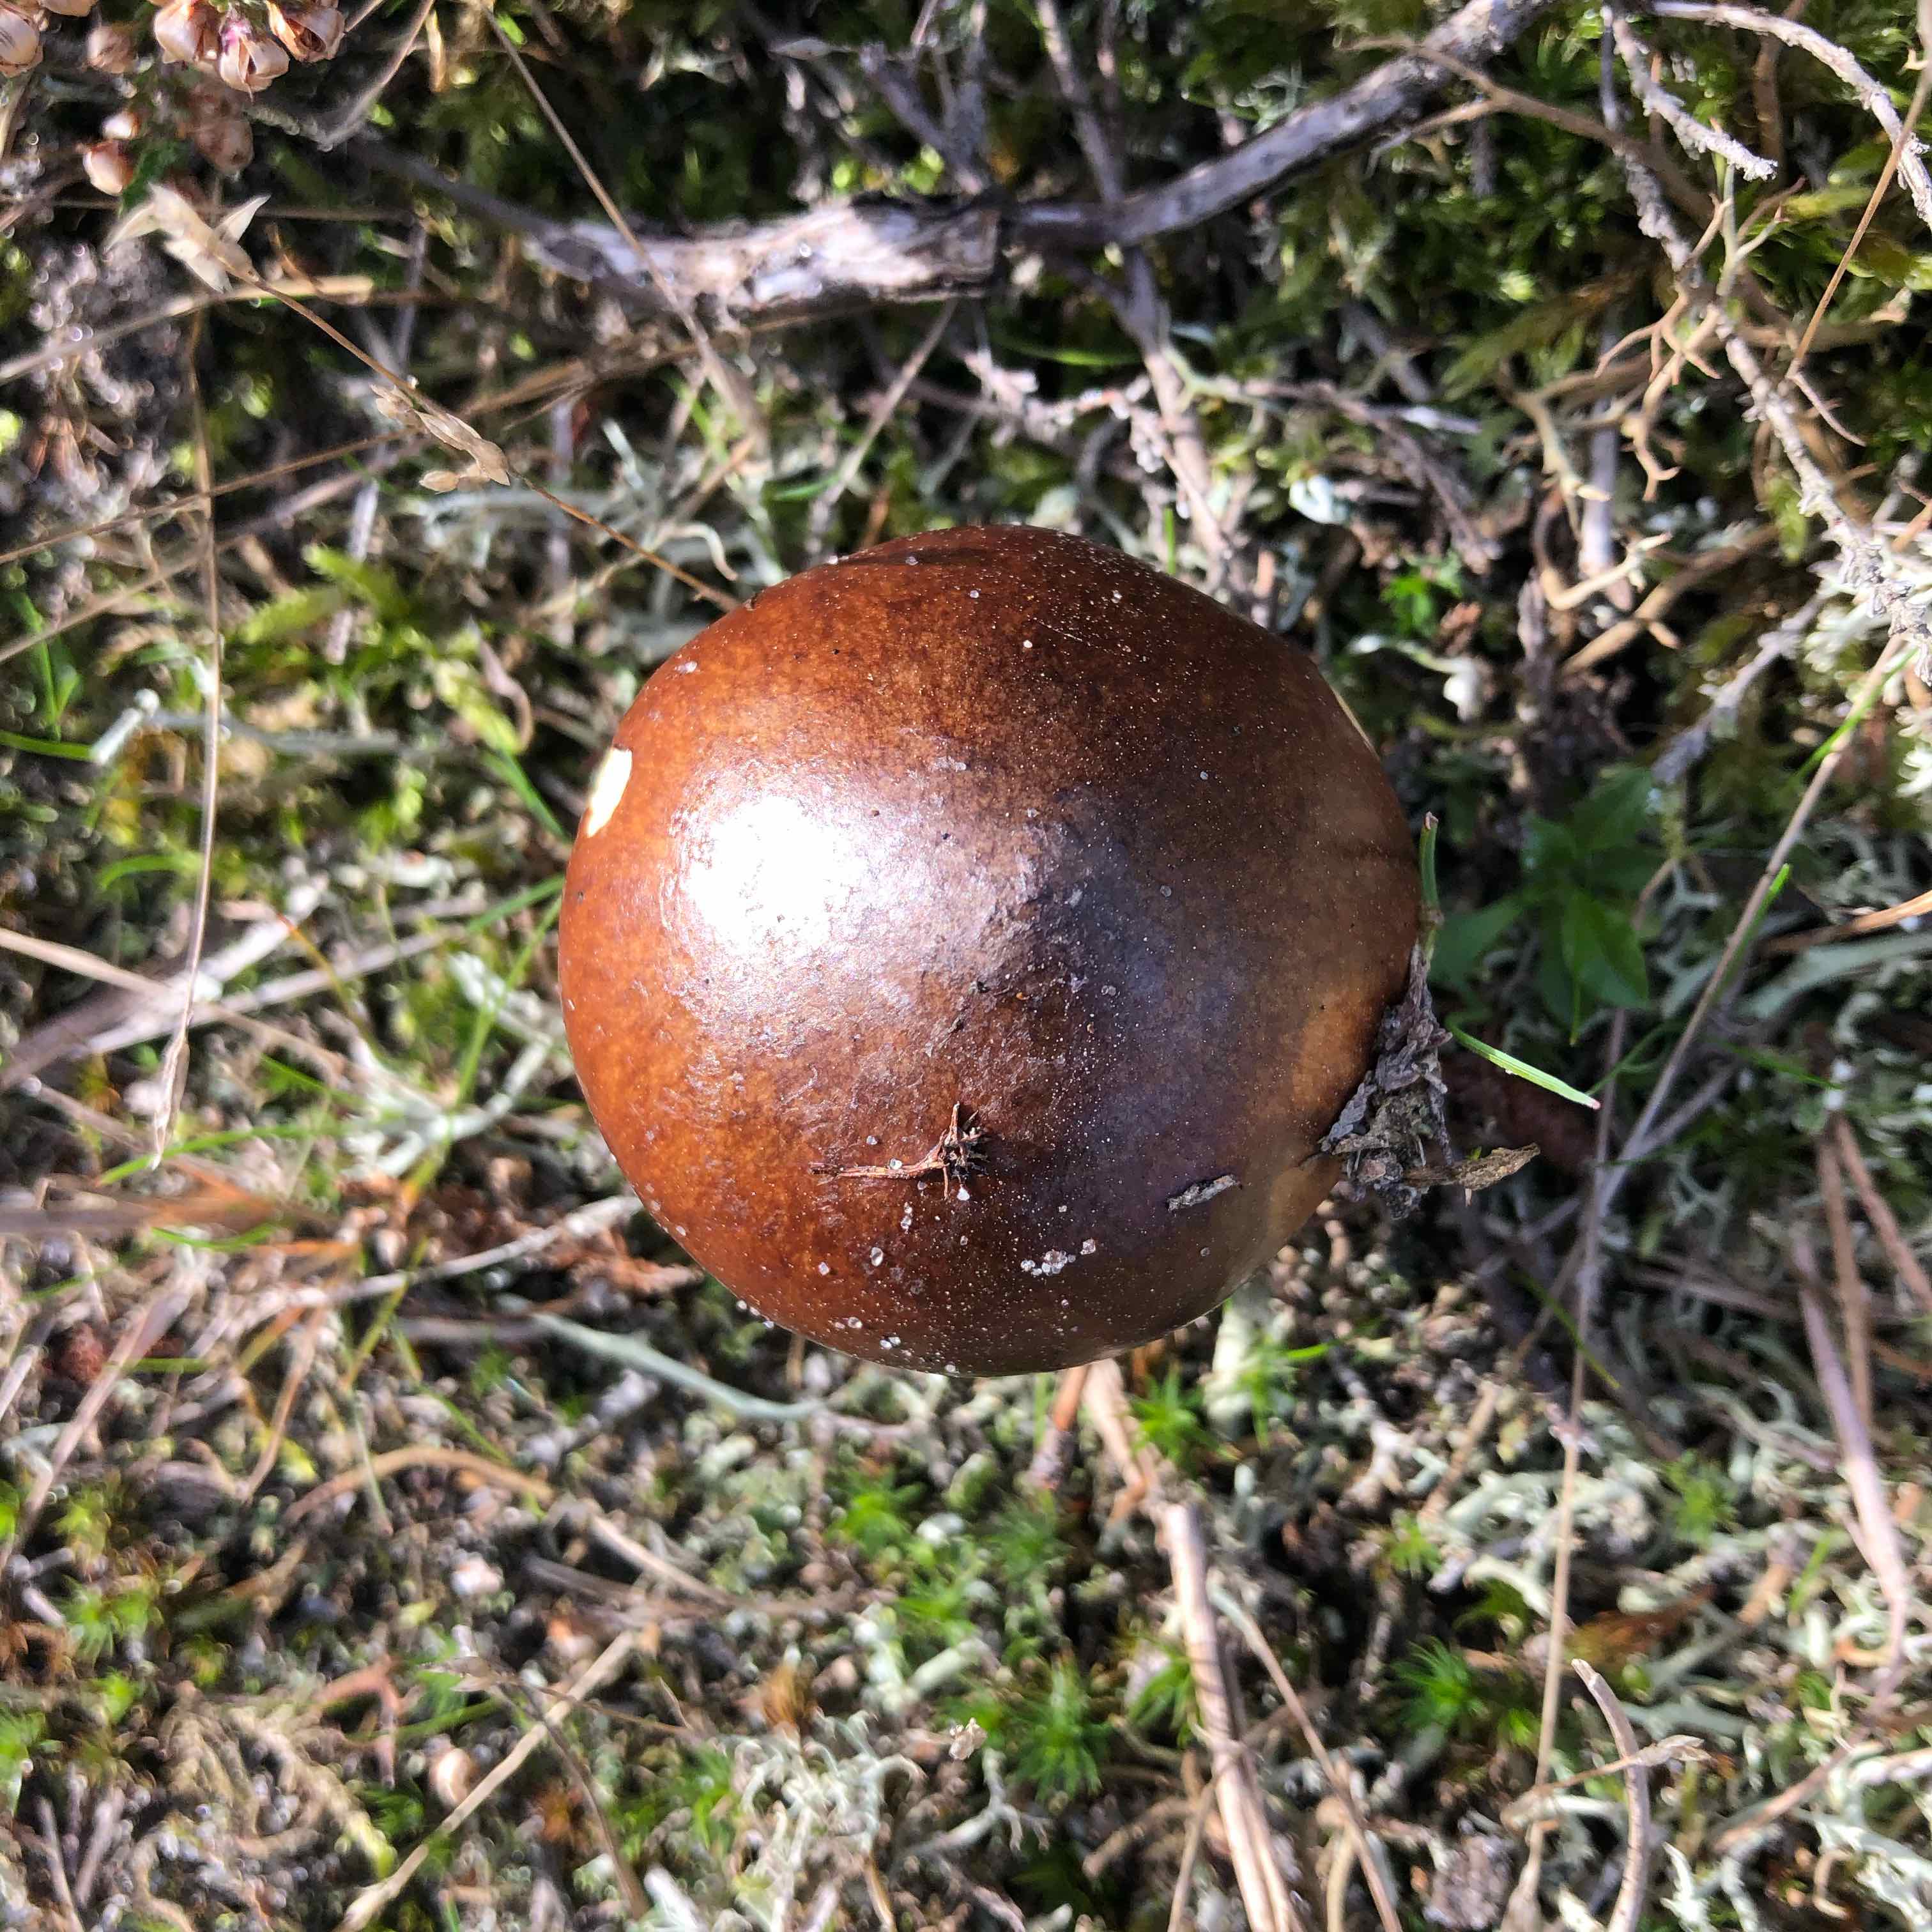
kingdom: Fungi
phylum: Basidiomycota
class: Agaricomycetes
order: Boletales
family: Suillaceae
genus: Suillus
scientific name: Suillus luteus
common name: brungul slimrørhat
